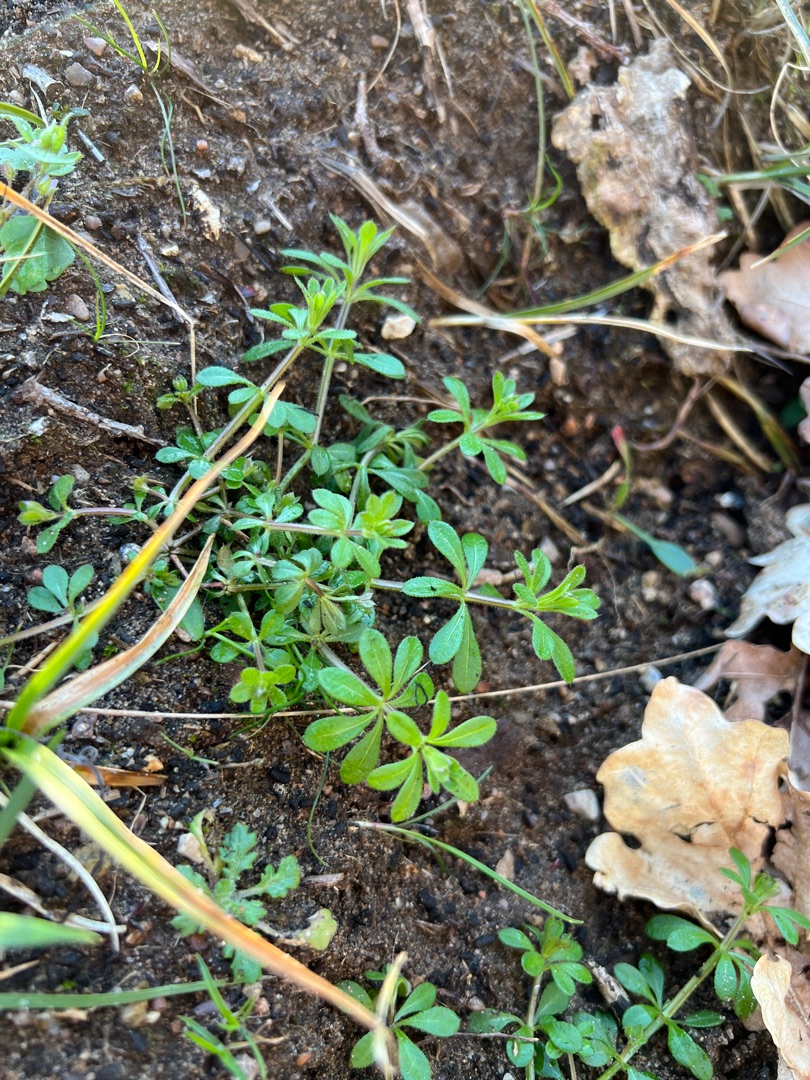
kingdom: Plantae
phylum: Tracheophyta
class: Magnoliopsida
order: Gentianales
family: Rubiaceae
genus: Galium
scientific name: Galium aparine
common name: Burre-snerre
